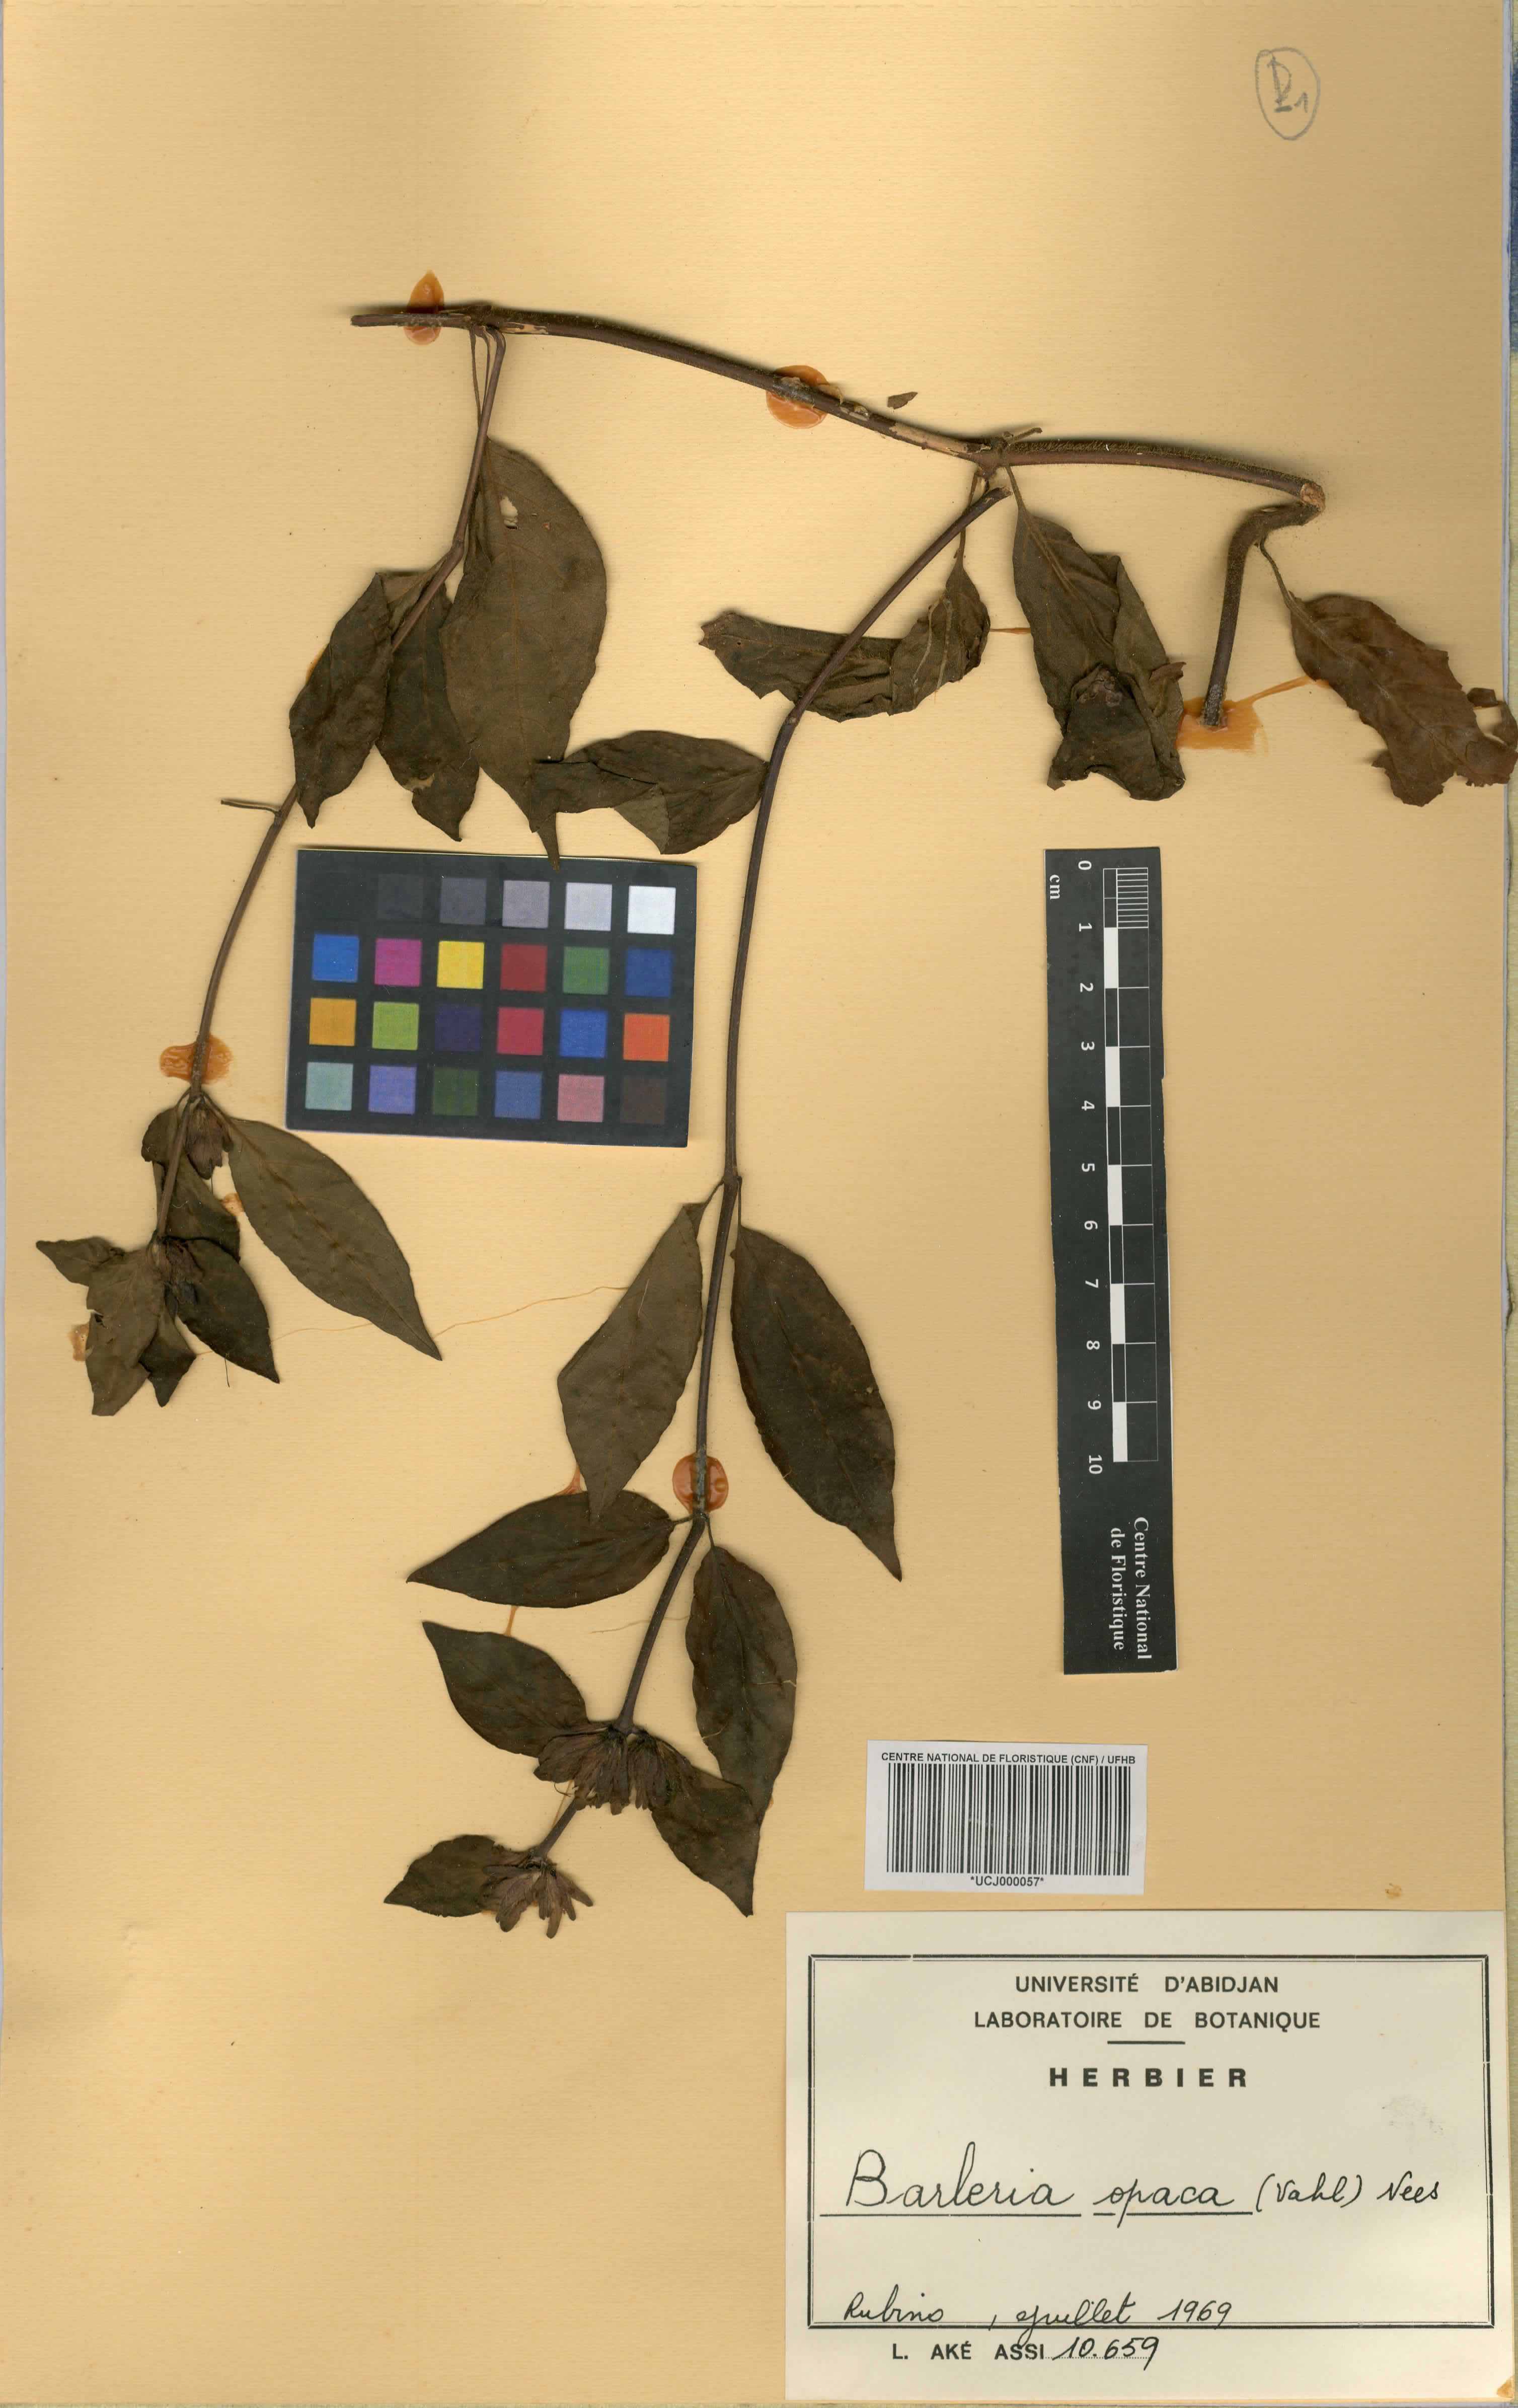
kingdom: Plantae
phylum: Tracheophyta
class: Magnoliopsida
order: Lamiales
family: Acanthaceae
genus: Barleria
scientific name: Barleria opaca
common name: Kwahu
